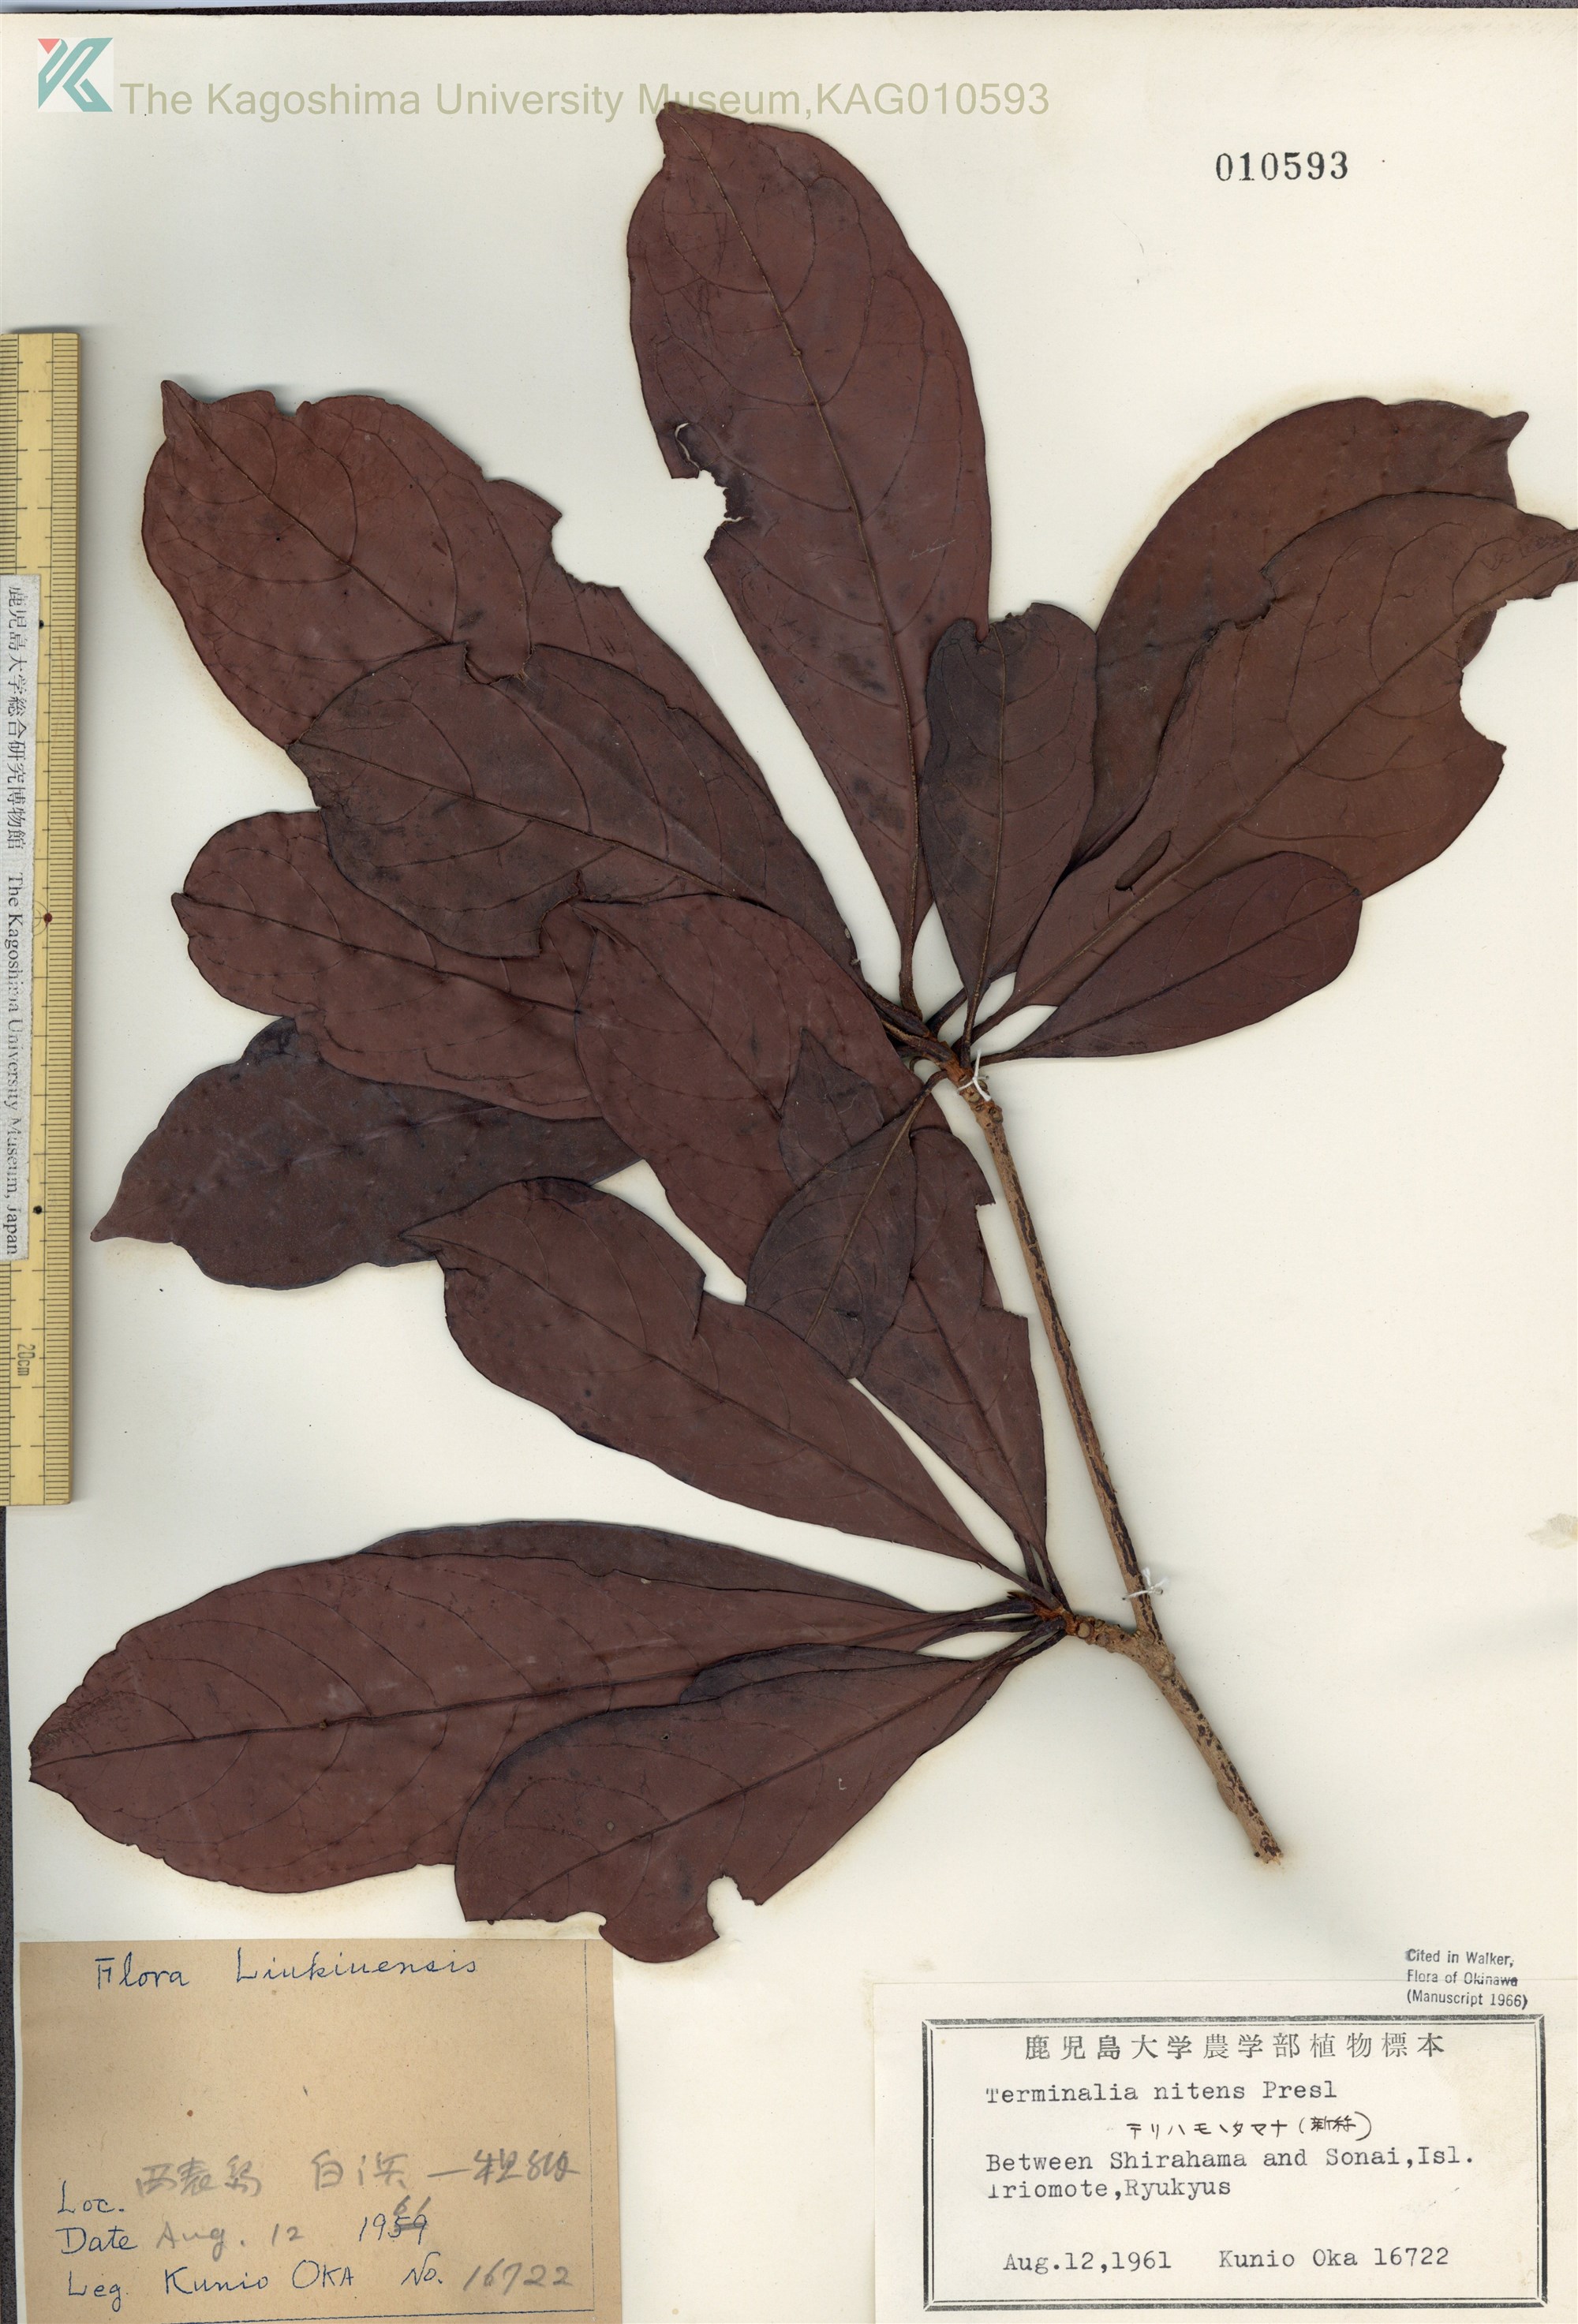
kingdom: Plantae
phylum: Tracheophyta
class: Magnoliopsida
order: Myrtales
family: Combretaceae
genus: Terminalia
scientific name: Terminalia nitens
